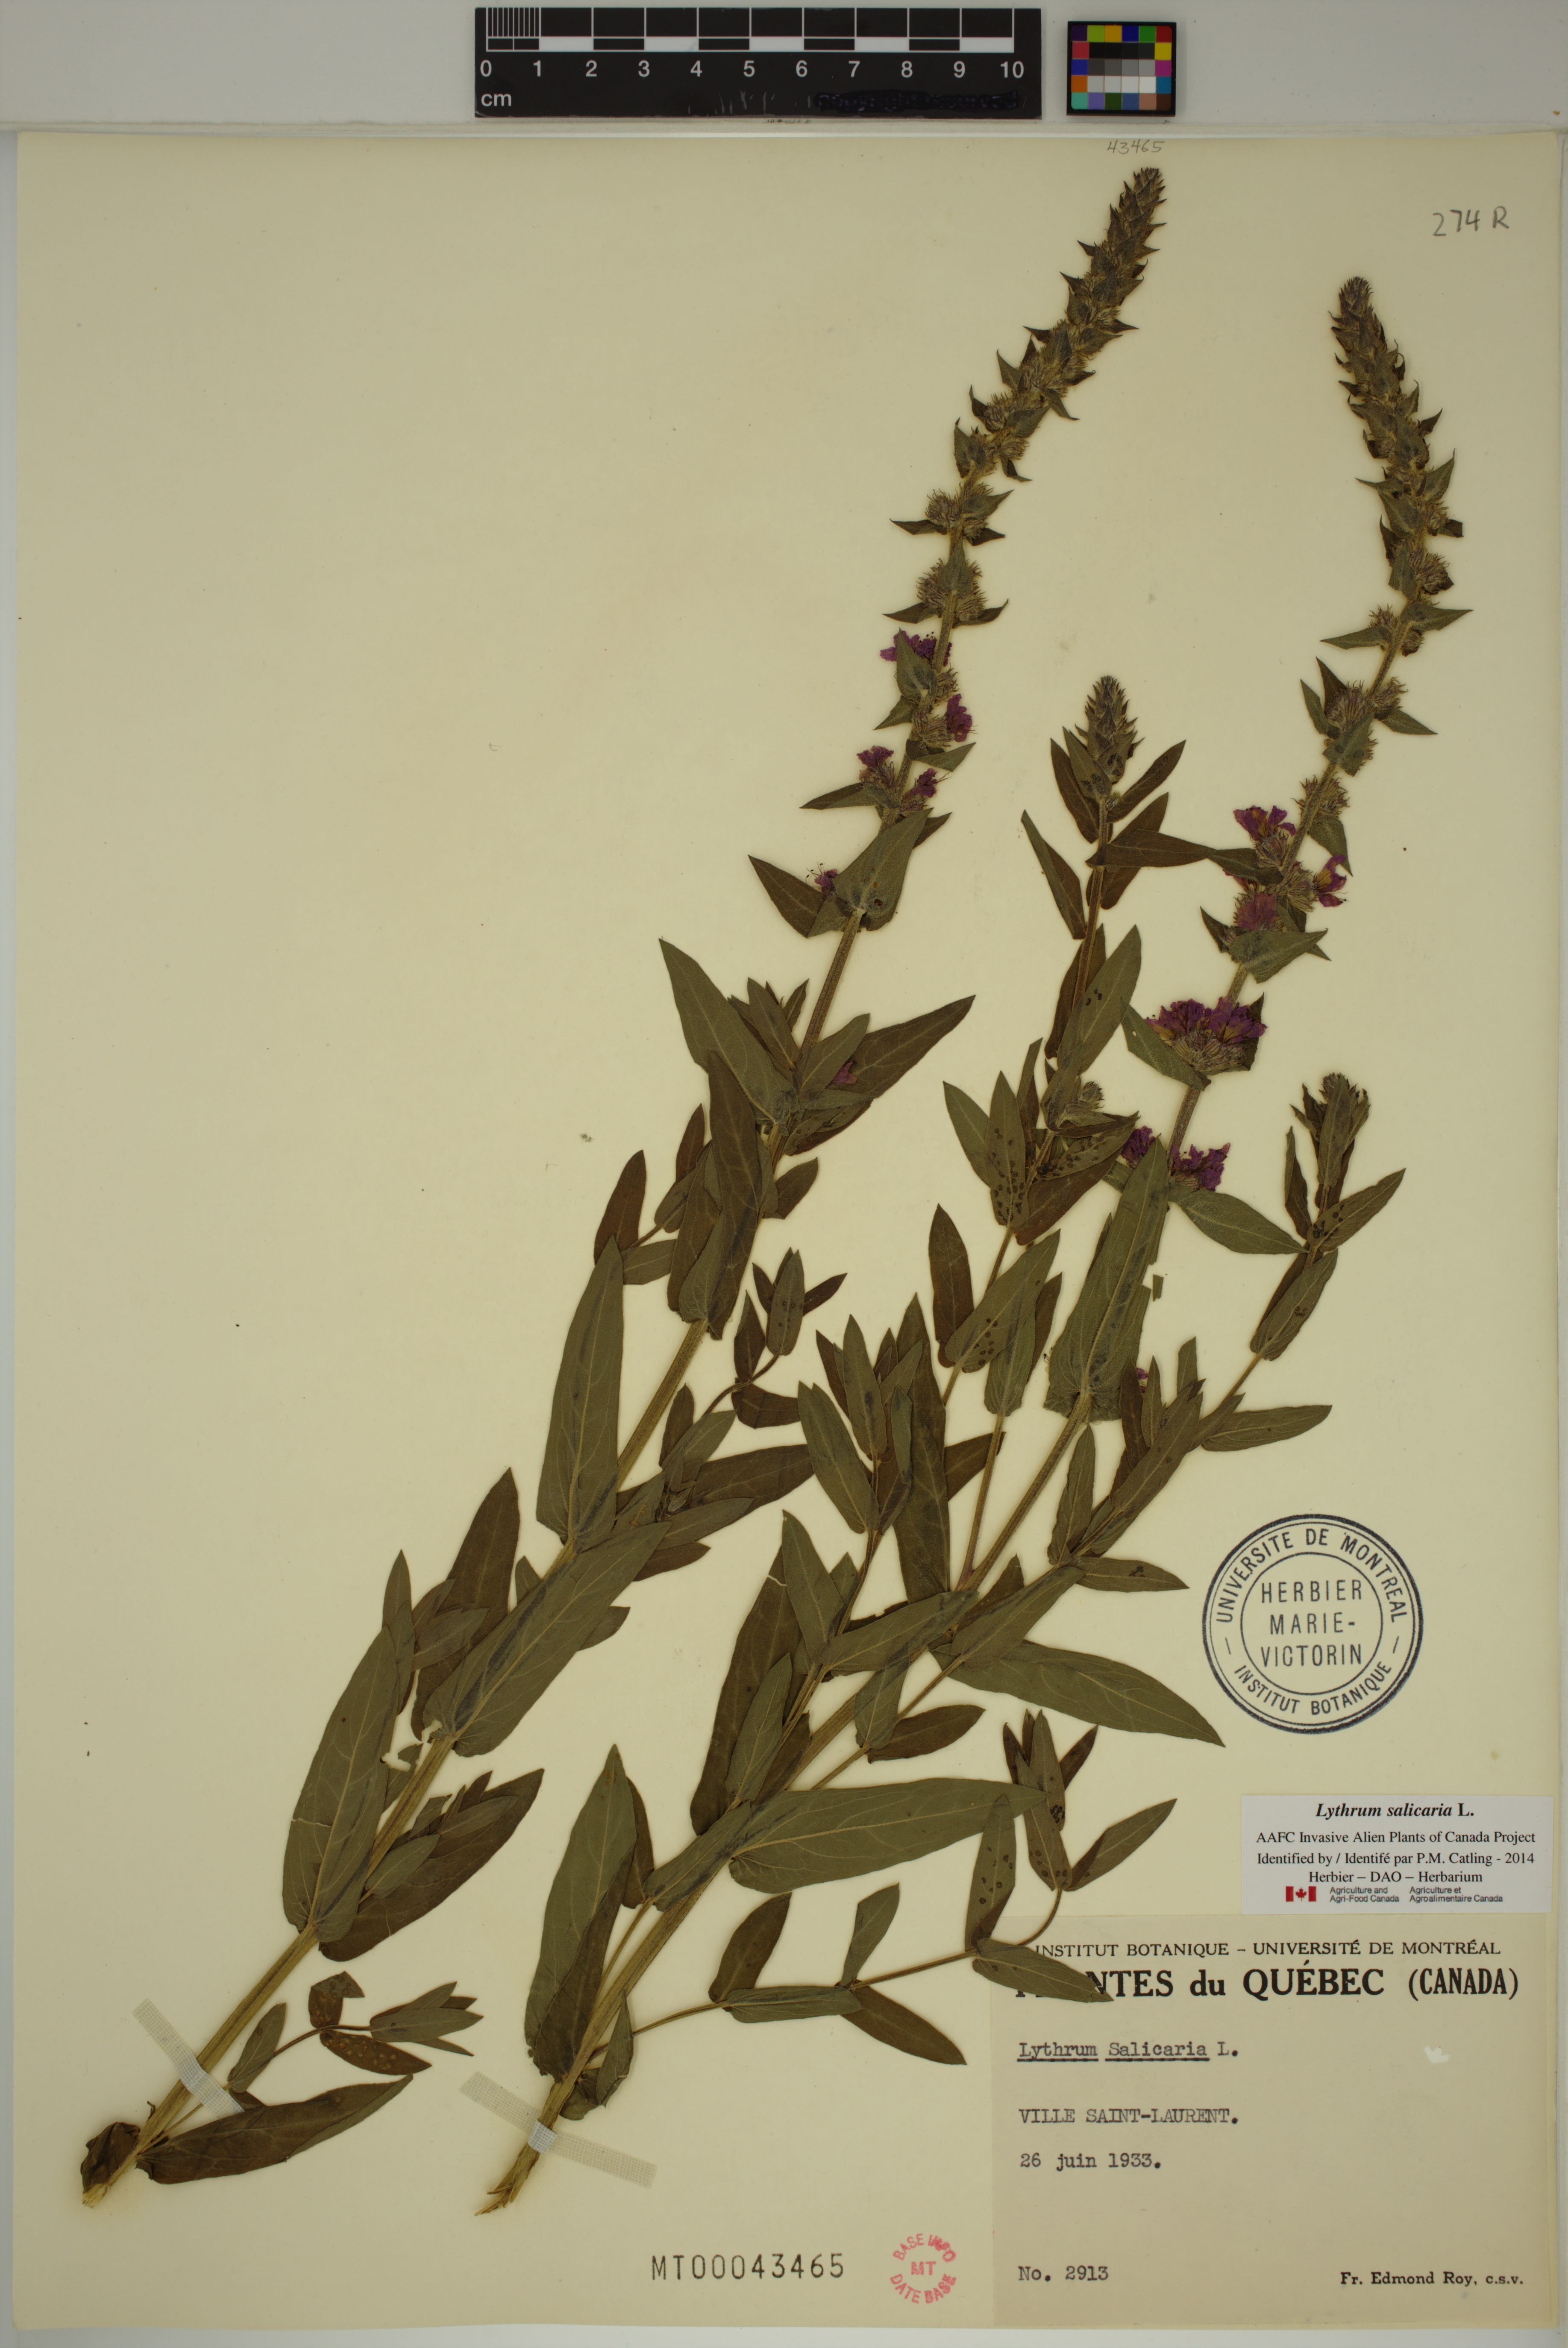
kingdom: Plantae
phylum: Tracheophyta
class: Magnoliopsida
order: Myrtales
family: Lythraceae
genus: Lythrum
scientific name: Lythrum salicaria
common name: Purple loosestrife
